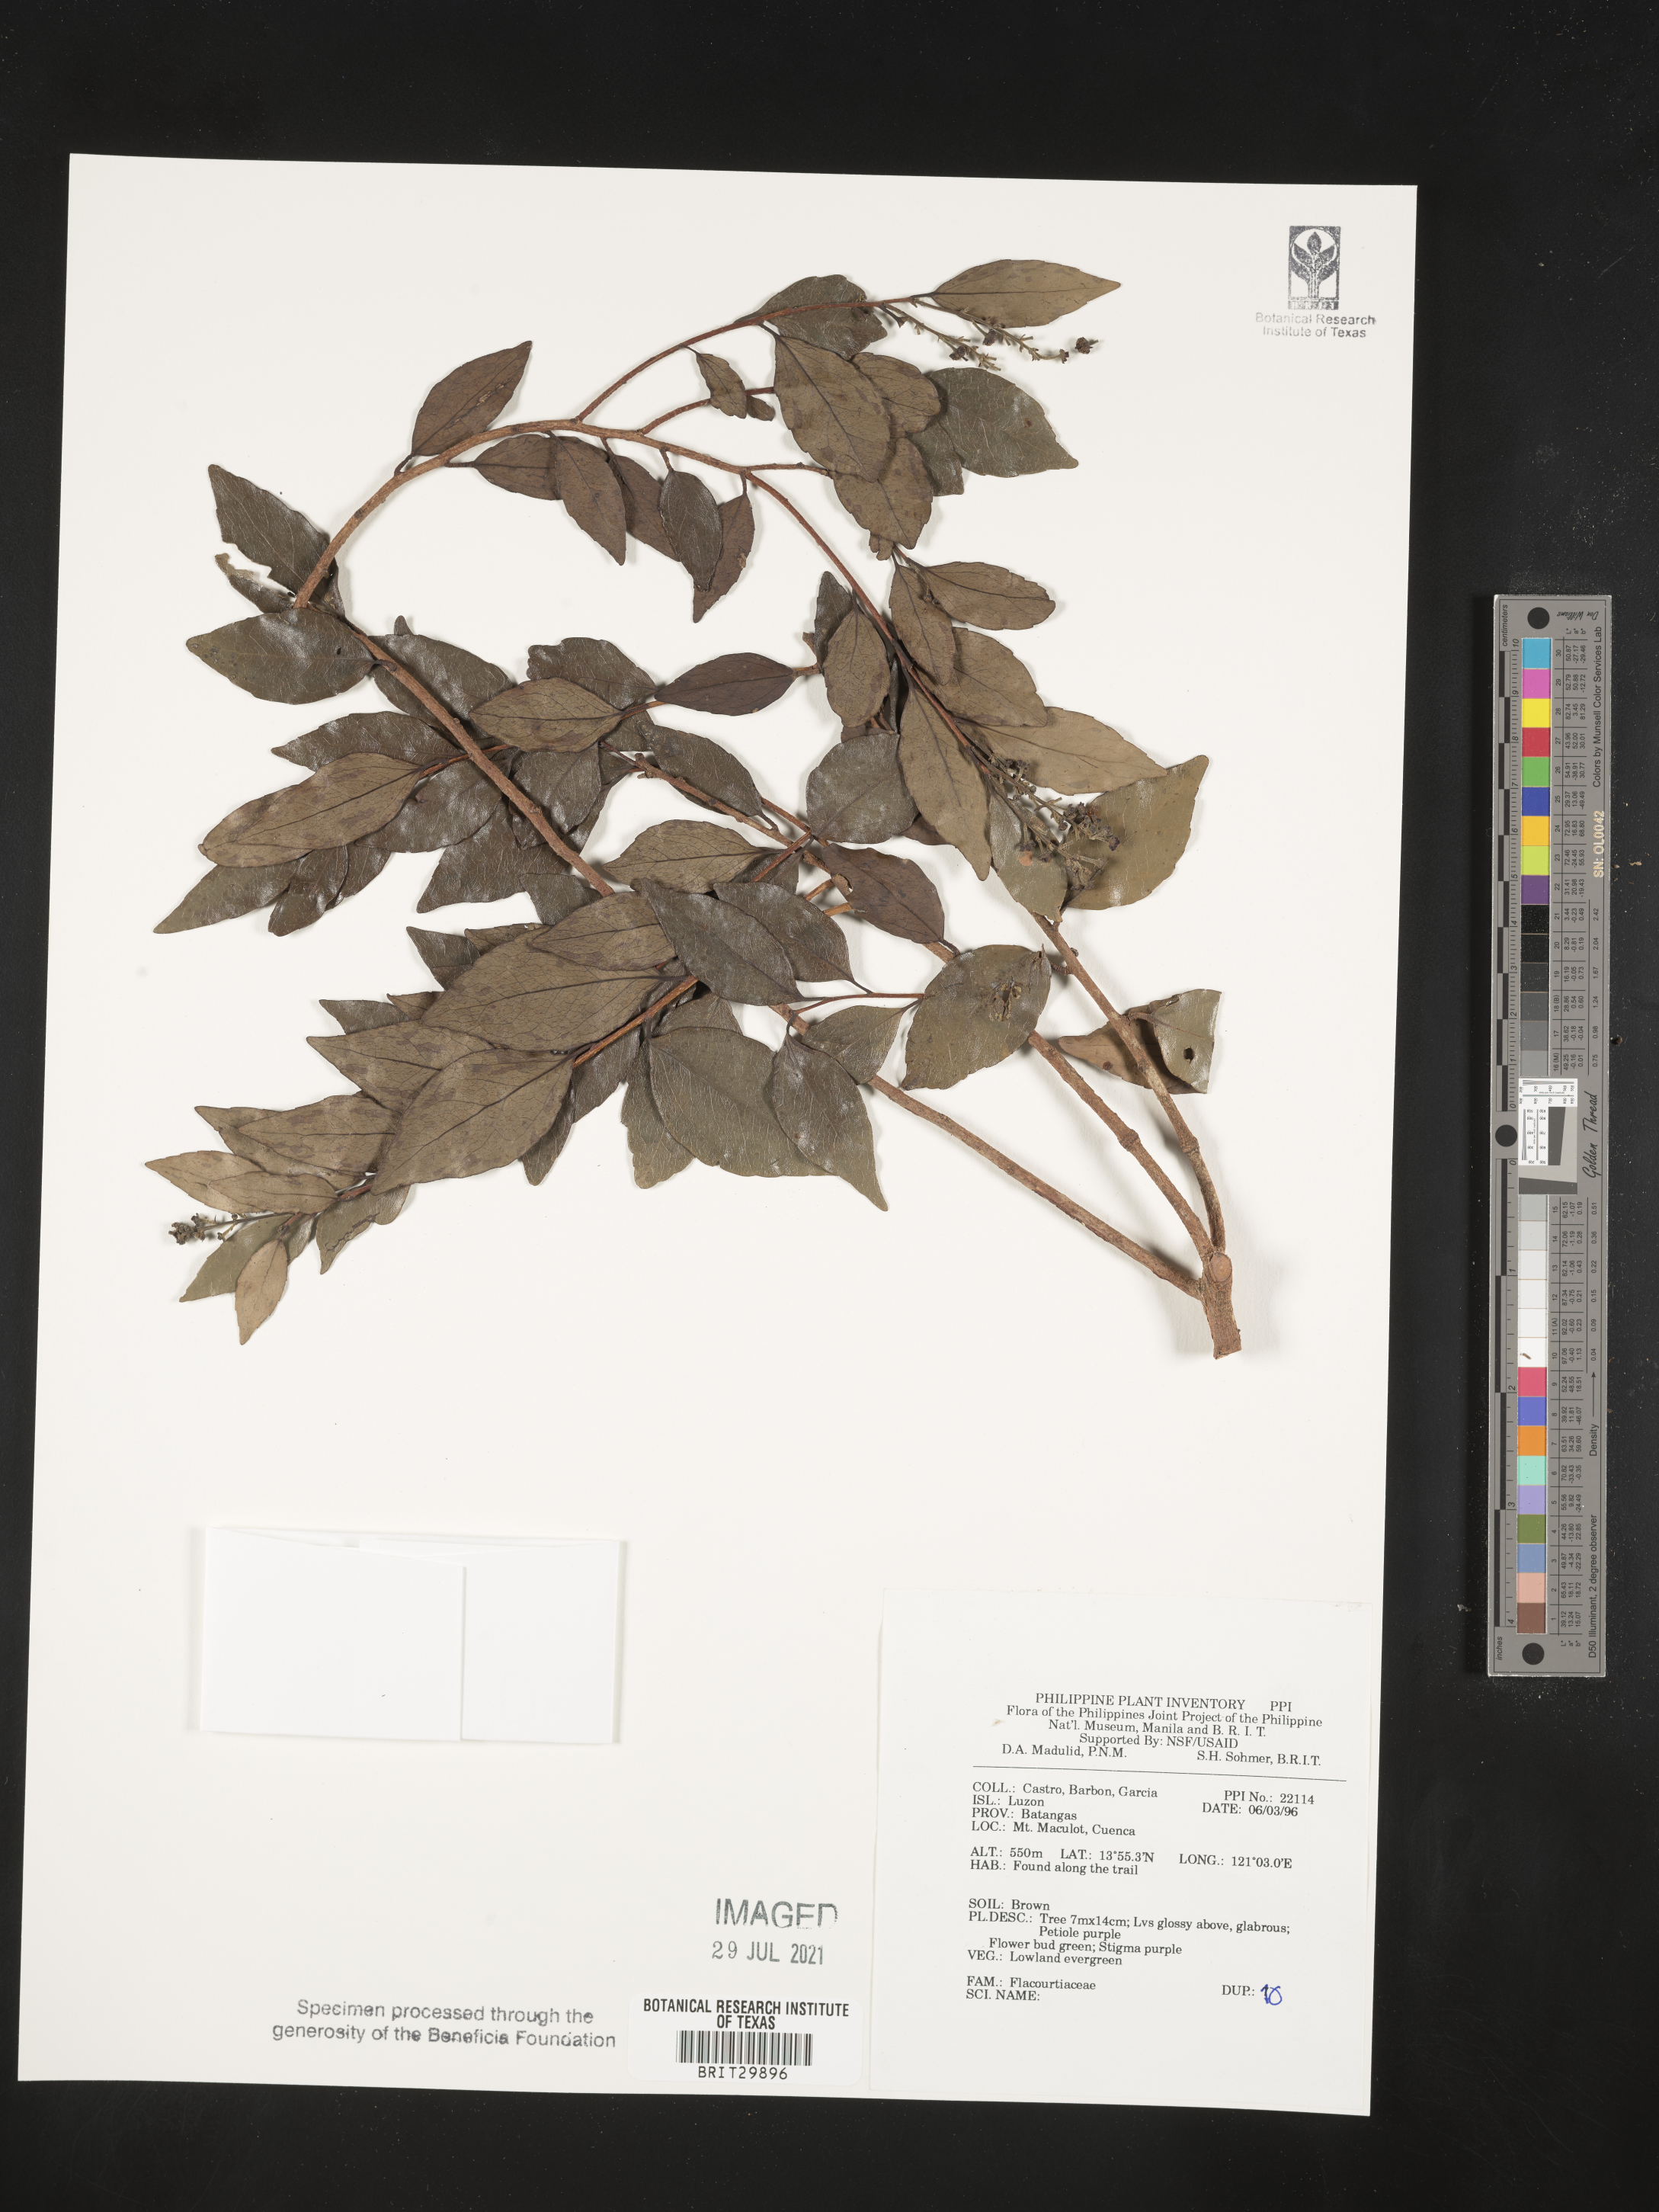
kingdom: Plantae
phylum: Tracheophyta
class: Magnoliopsida
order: Malpighiales
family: Flacourtiaceae
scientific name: Flacourtiaceae
